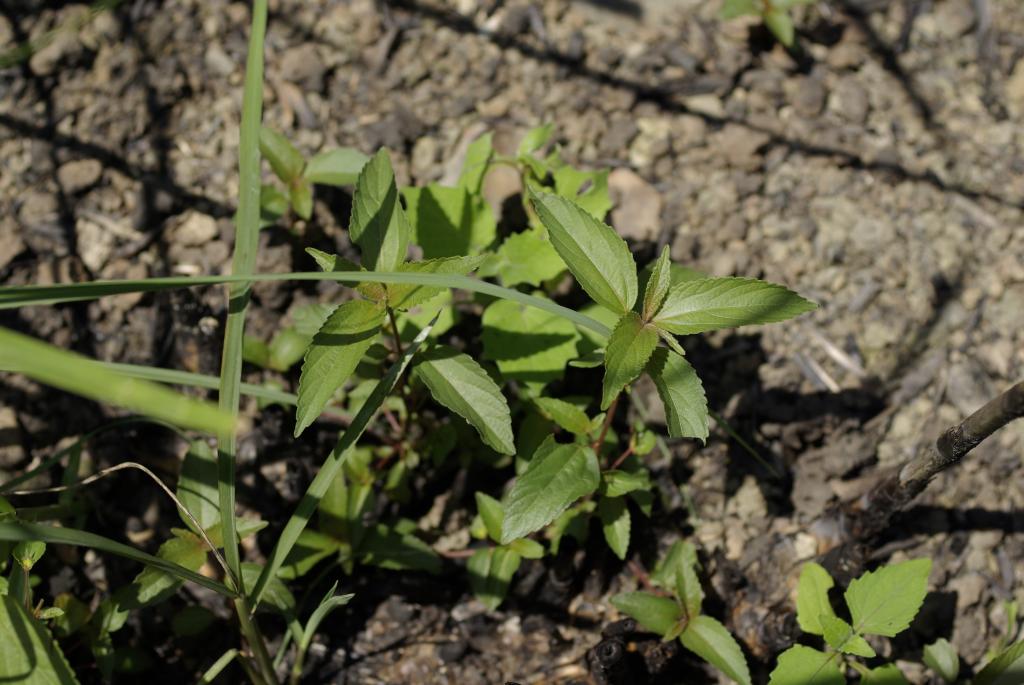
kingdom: Plantae
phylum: Tracheophyta
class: Magnoliopsida
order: Malpighiales
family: Euphorbiaceae
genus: Acalypha
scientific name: Acalypha australis
